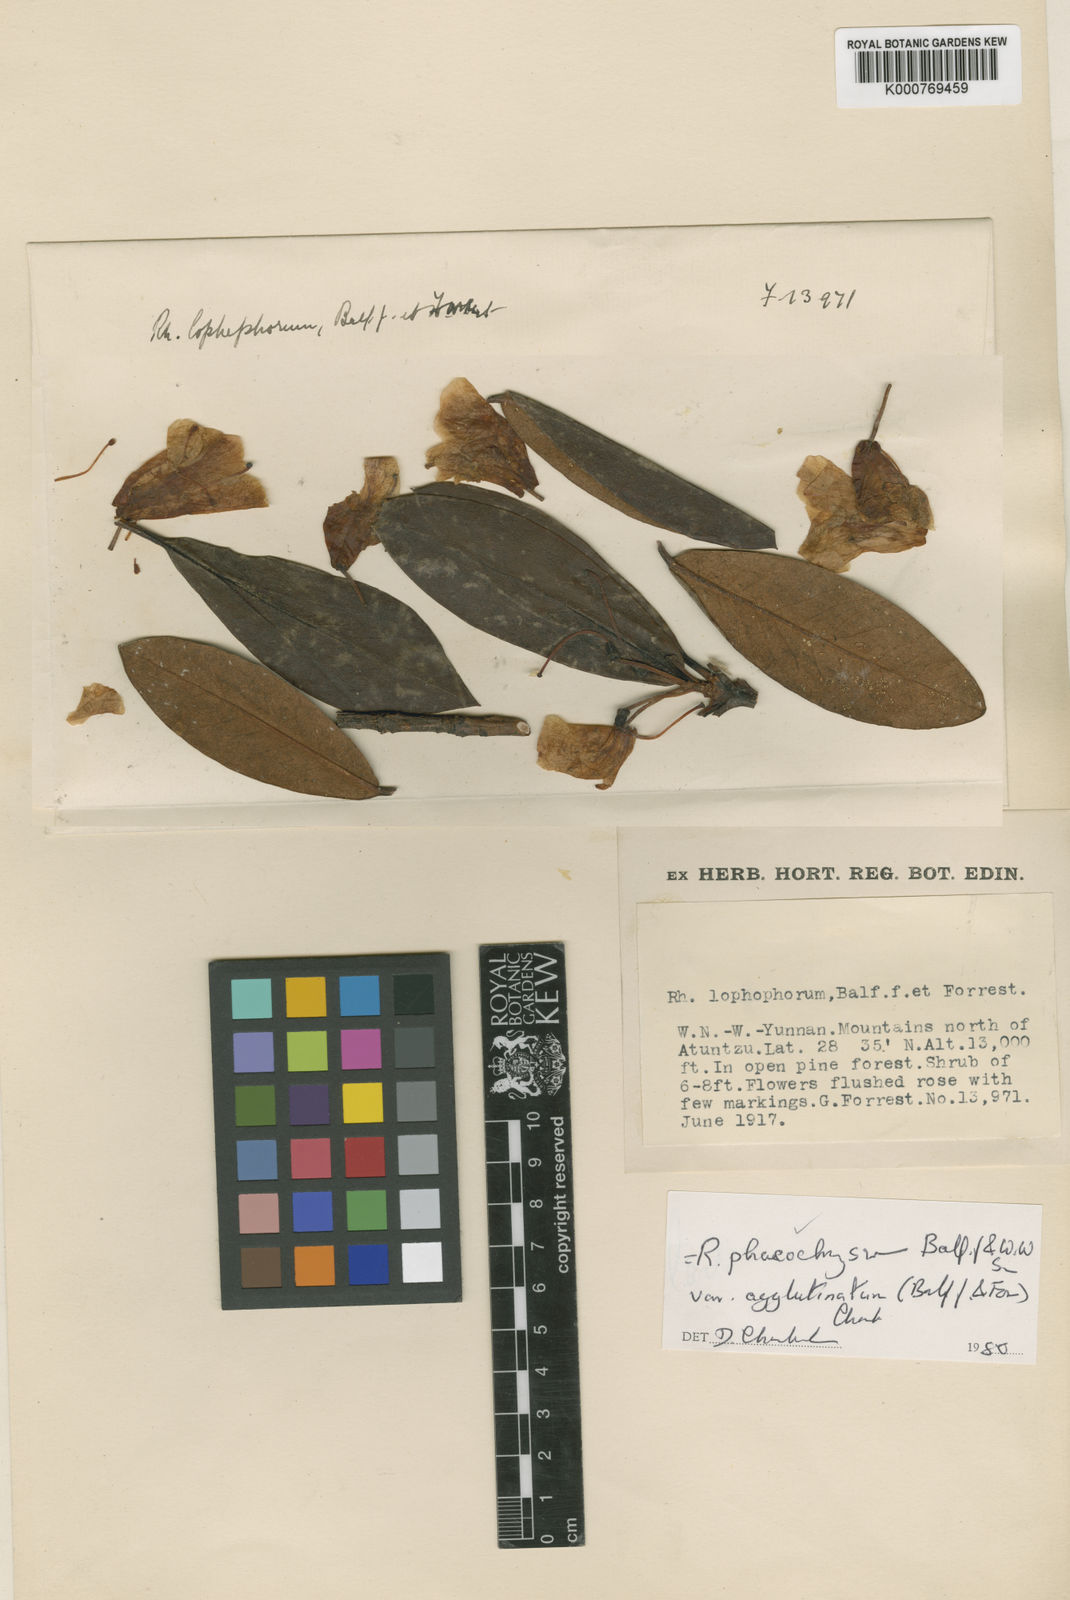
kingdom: Plantae
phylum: Tracheophyta
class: Magnoliopsida
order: Ericales
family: Ericaceae
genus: Rhododendron
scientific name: Rhododendron phaeochrysum
